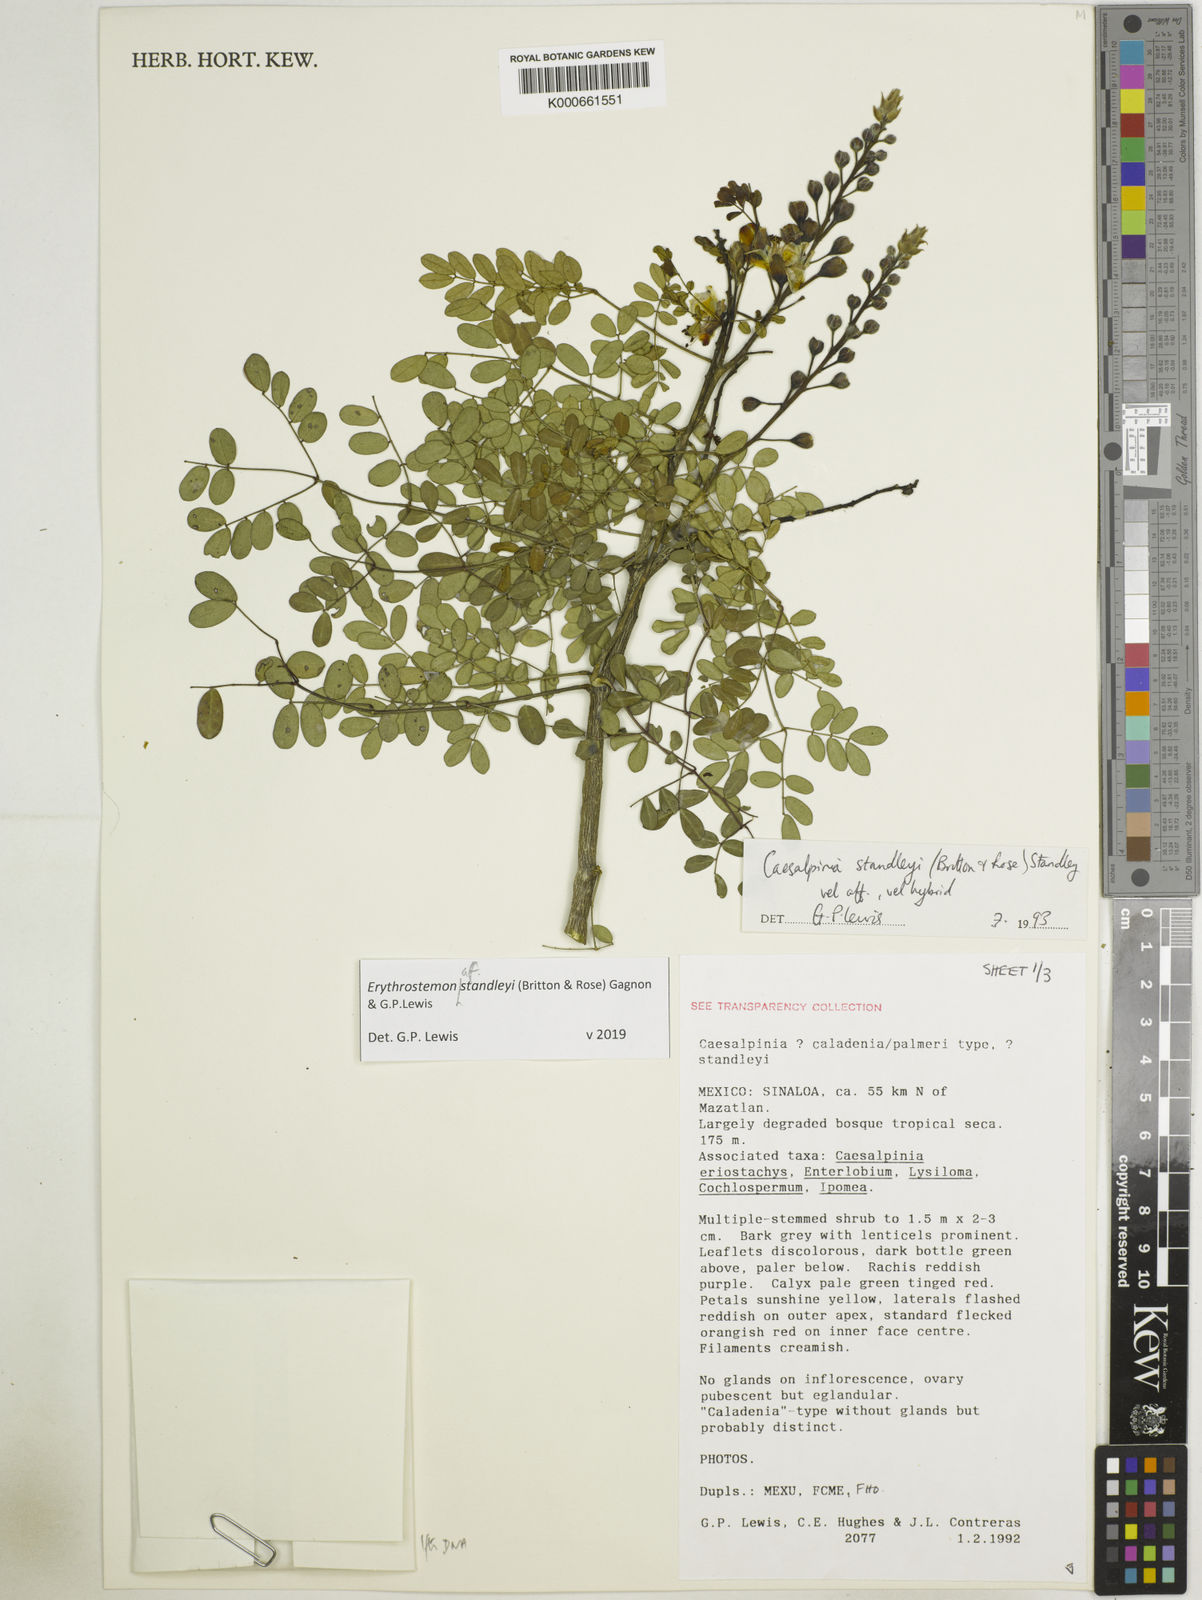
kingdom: Plantae
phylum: Tracheophyta
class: Magnoliopsida
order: Fabales
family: Fabaceae
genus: Erythrostemon
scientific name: Erythrostemon standleyi
